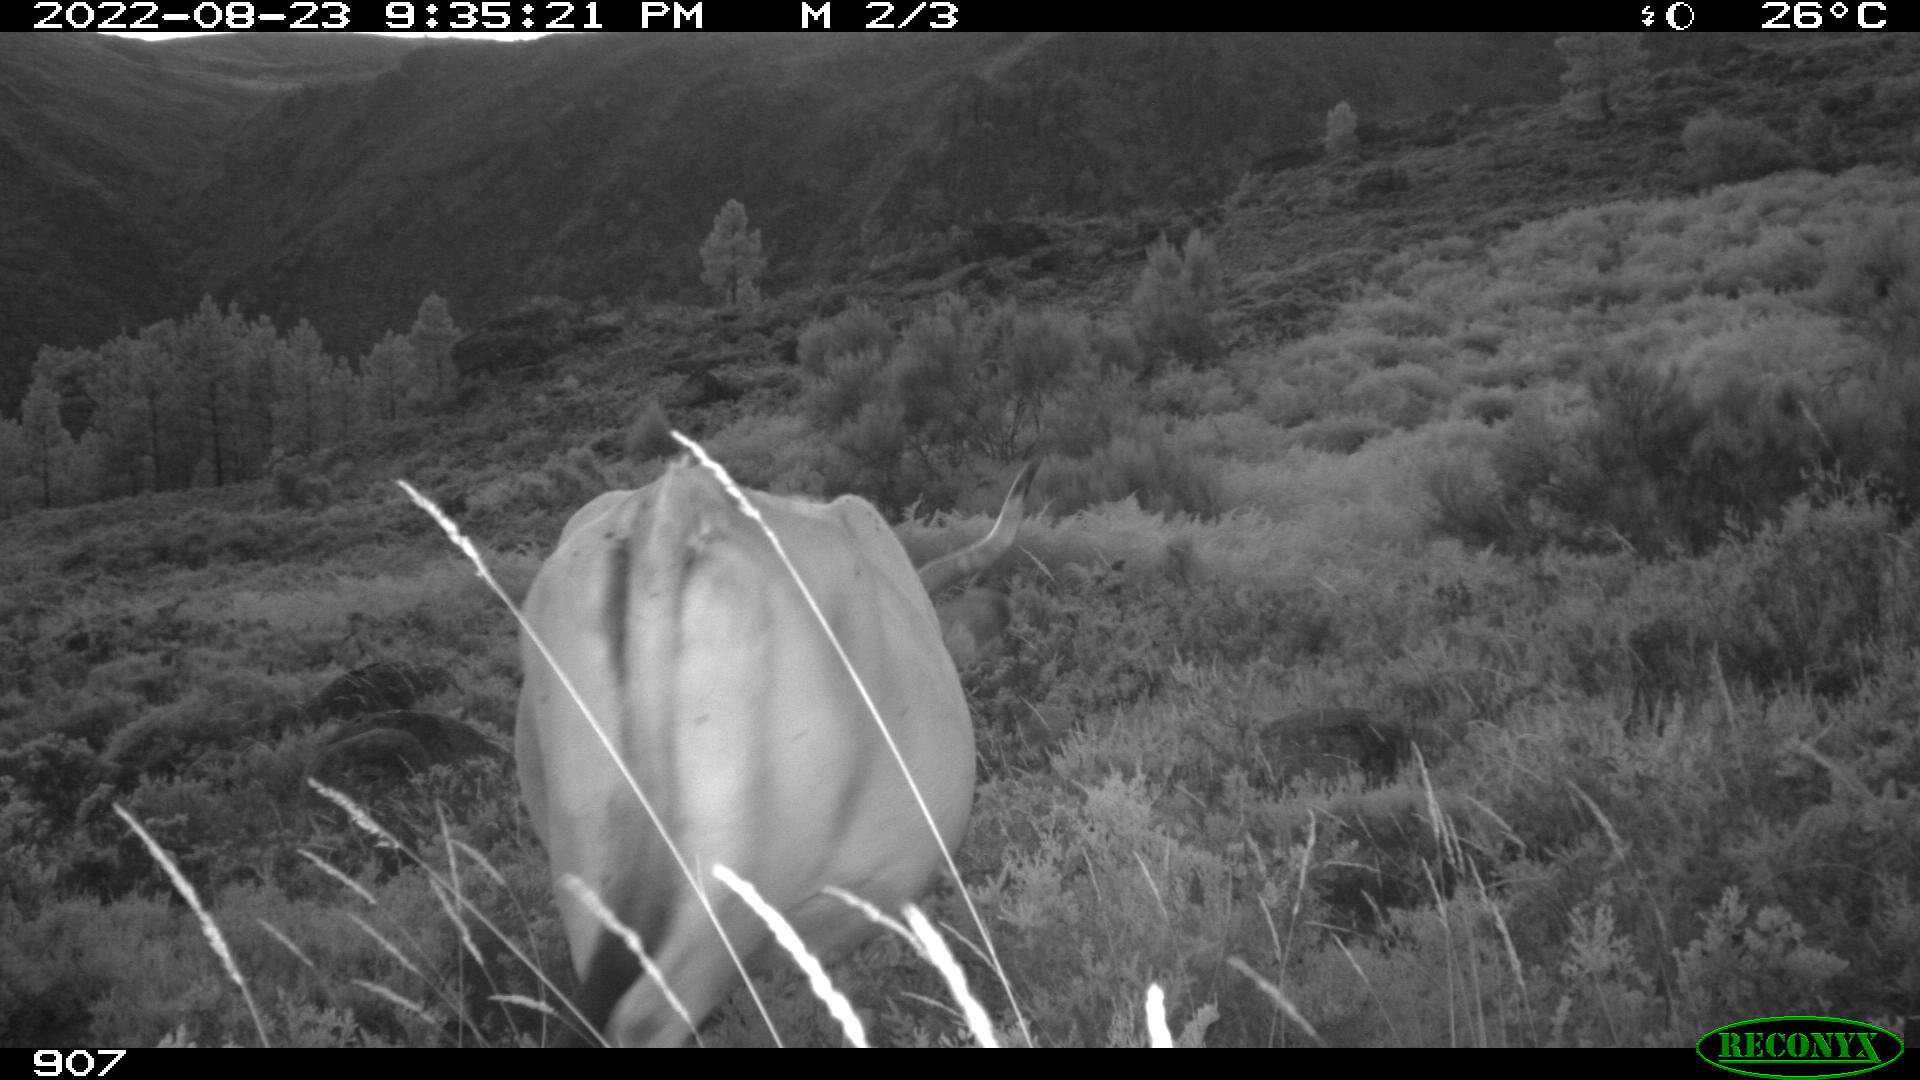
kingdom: Animalia
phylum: Chordata
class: Mammalia
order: Artiodactyla
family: Bovidae
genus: Bos
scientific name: Bos taurus
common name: Domesticated cattle
